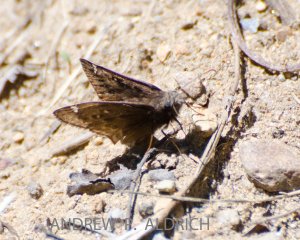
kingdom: Animalia
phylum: Arthropoda
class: Insecta
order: Lepidoptera
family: Hesperiidae
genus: Autochton
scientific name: Autochton
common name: Northern Cloudywing
